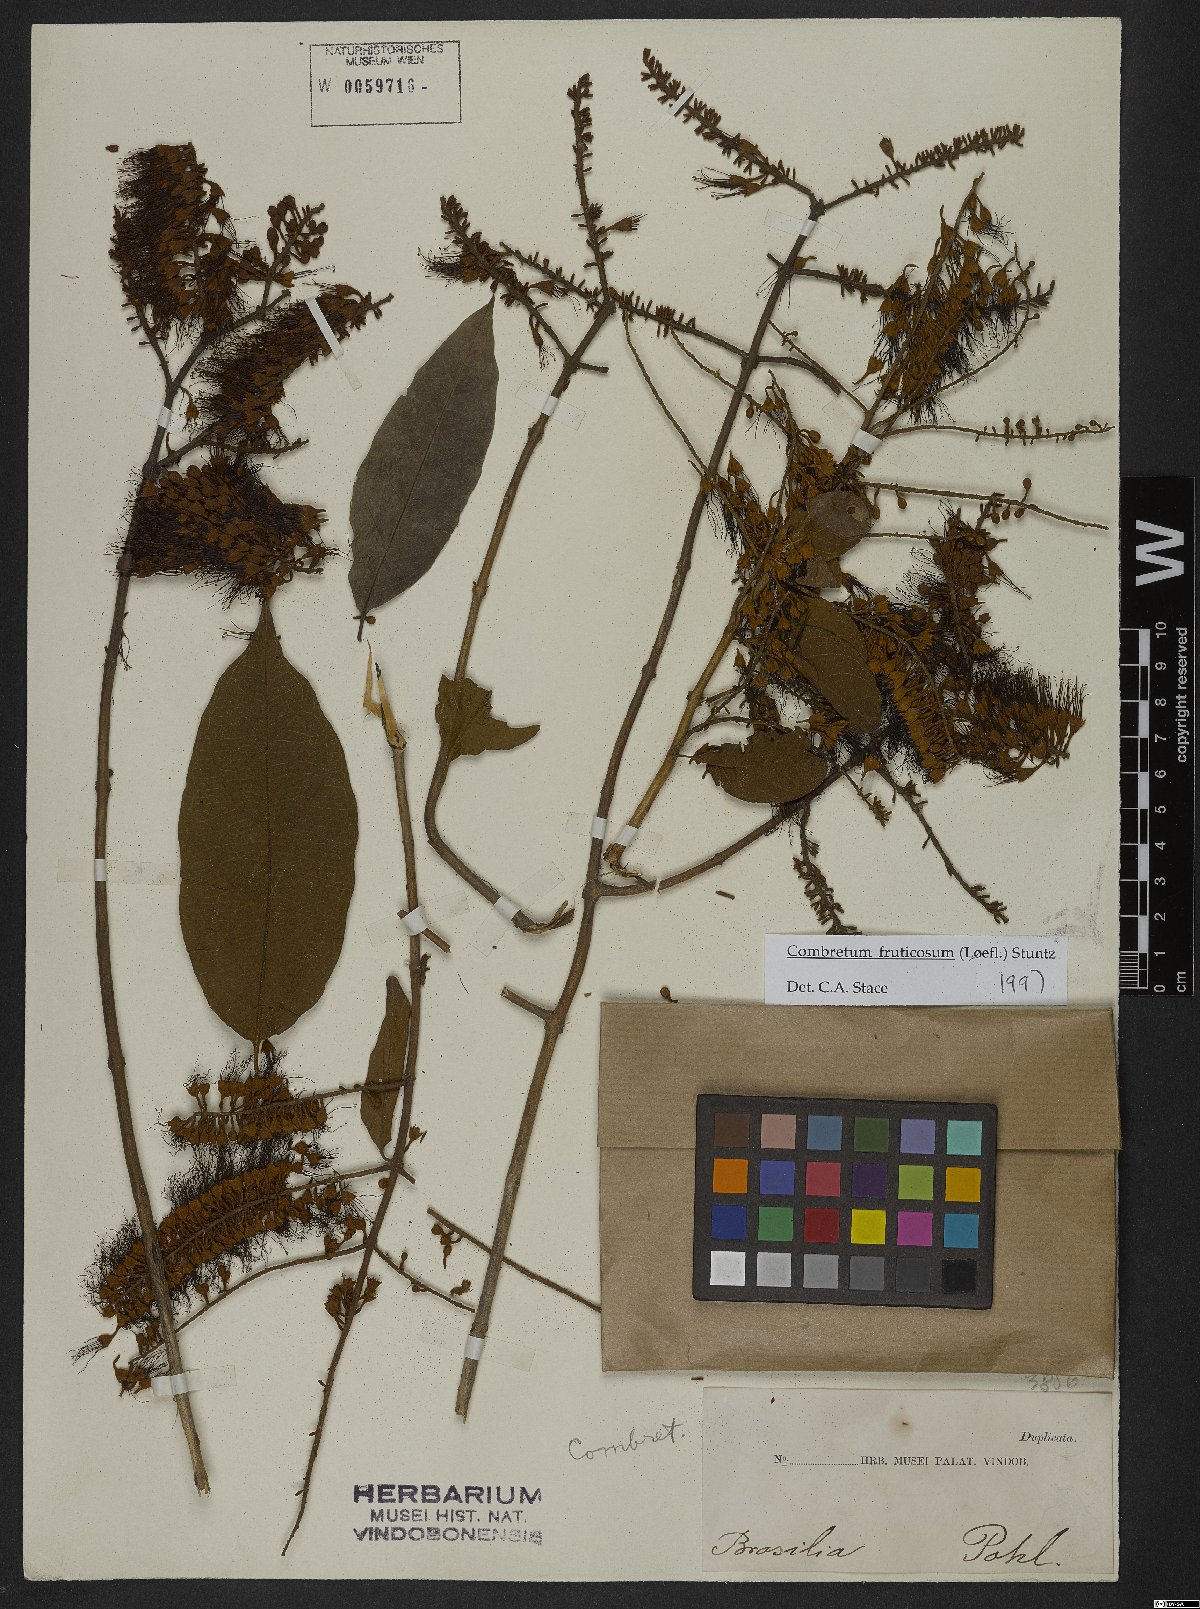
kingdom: Plantae
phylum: Tracheophyta
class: Magnoliopsida
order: Myrtales
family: Combretaceae
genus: Combretum
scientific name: Combretum fruticosum
